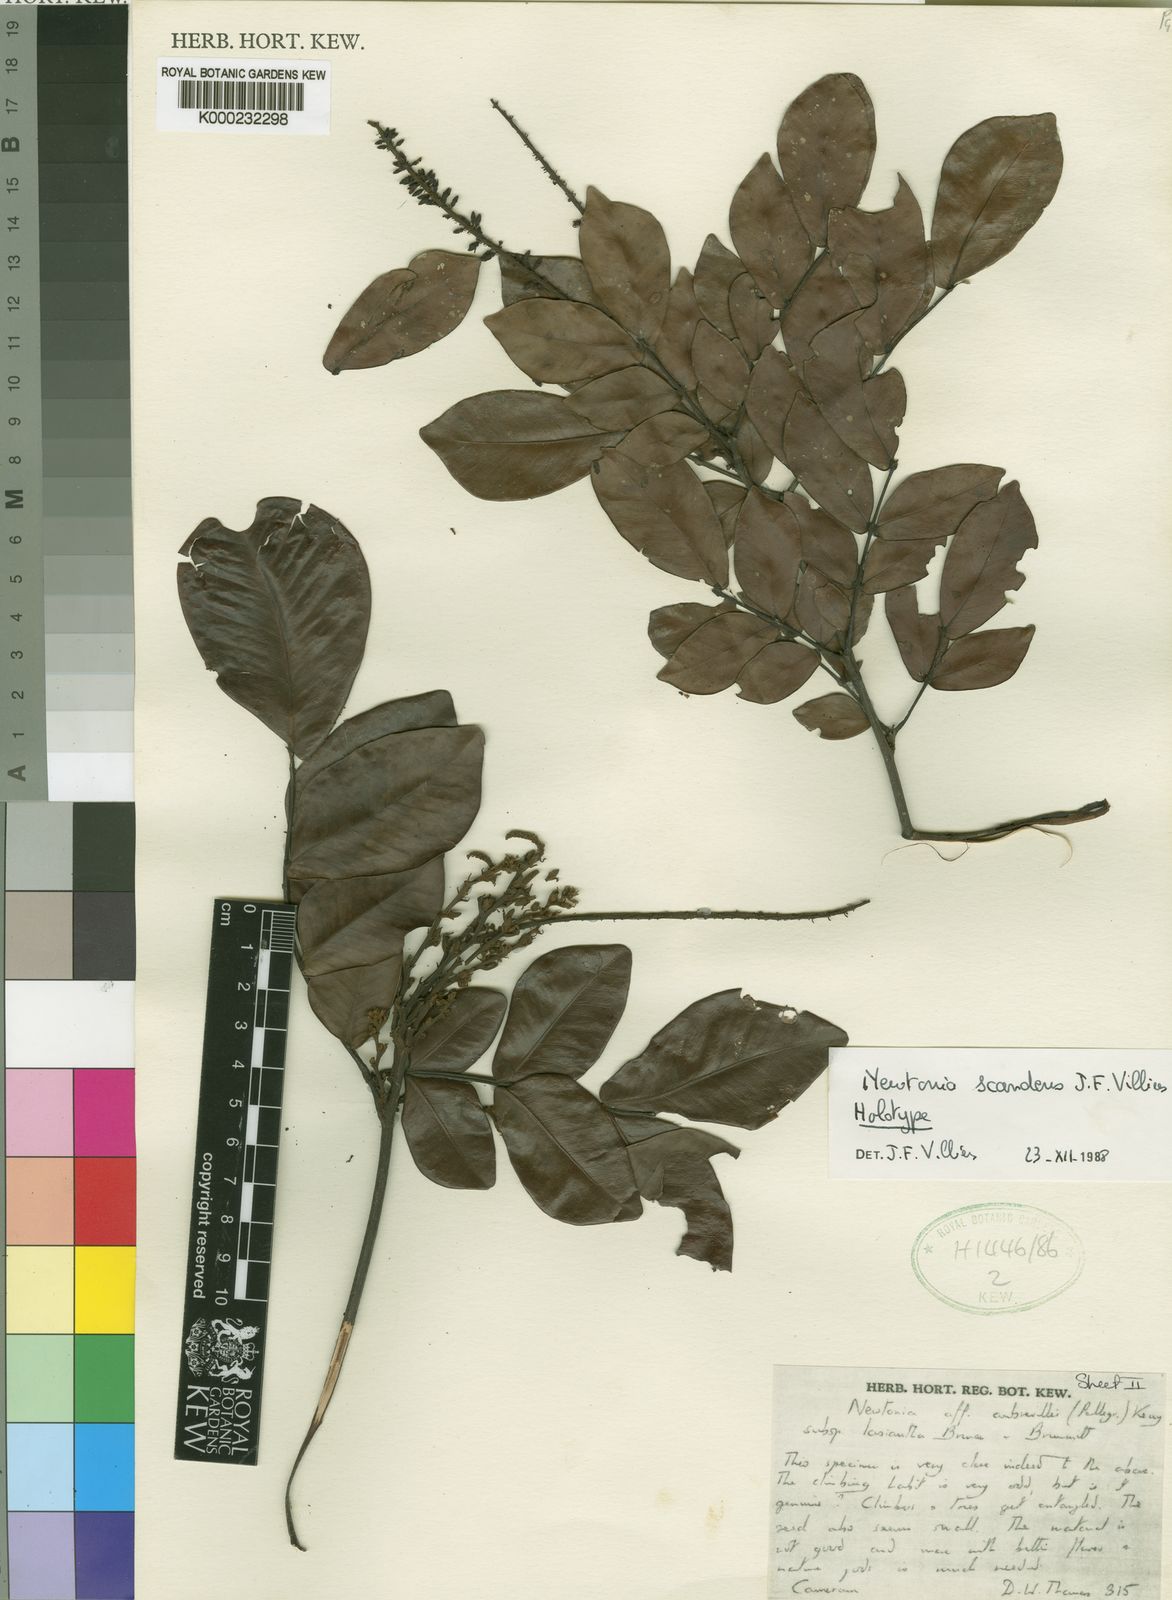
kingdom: Plantae
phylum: Tracheophyta
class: Magnoliopsida
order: Fabales
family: Fabaceae
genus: Newtonia
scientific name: Newtonia scandens
